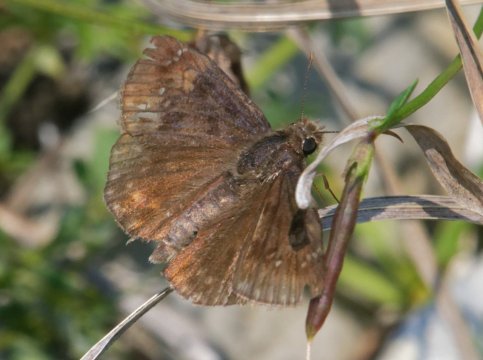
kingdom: Animalia
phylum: Arthropoda
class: Insecta
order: Lepidoptera
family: Hesperiidae
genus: Gesta
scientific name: Gesta
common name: Wild Indigo Duskywing
